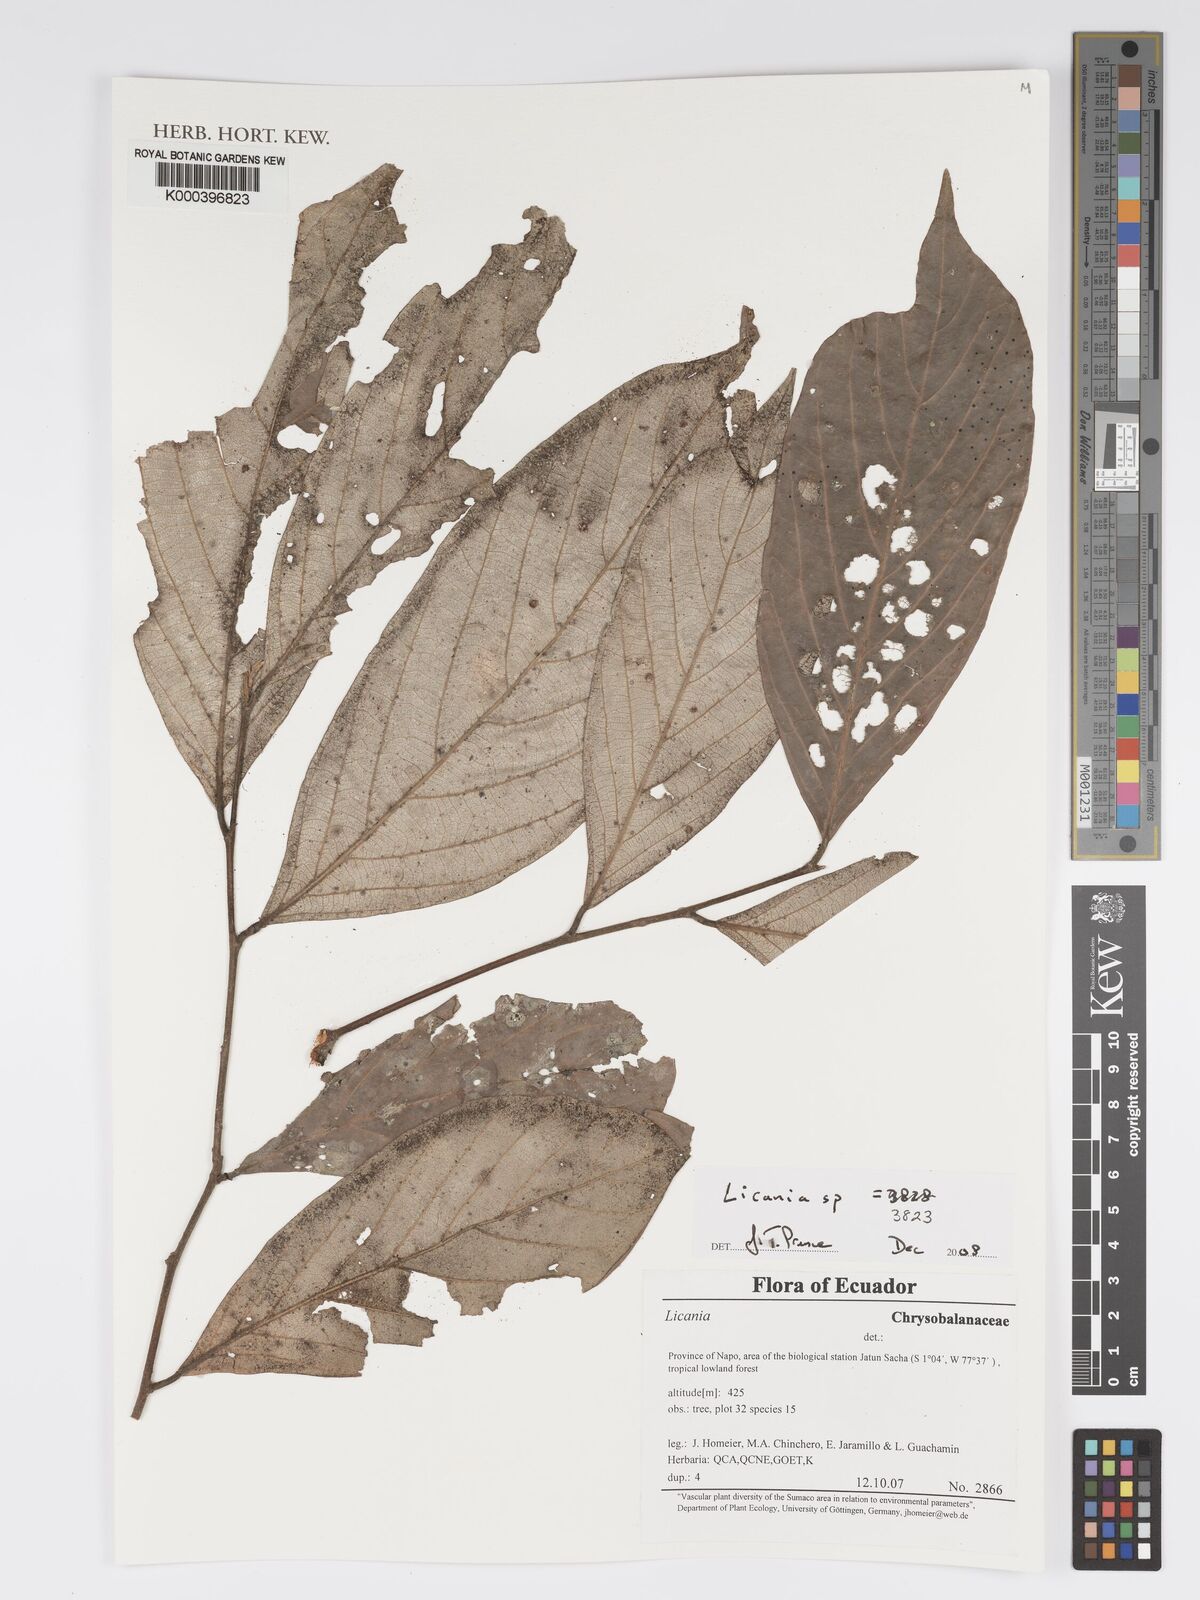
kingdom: Plantae
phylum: Tracheophyta
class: Magnoliopsida
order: Malpighiales
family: Chrysobalanaceae
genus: Licania
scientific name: Licania
